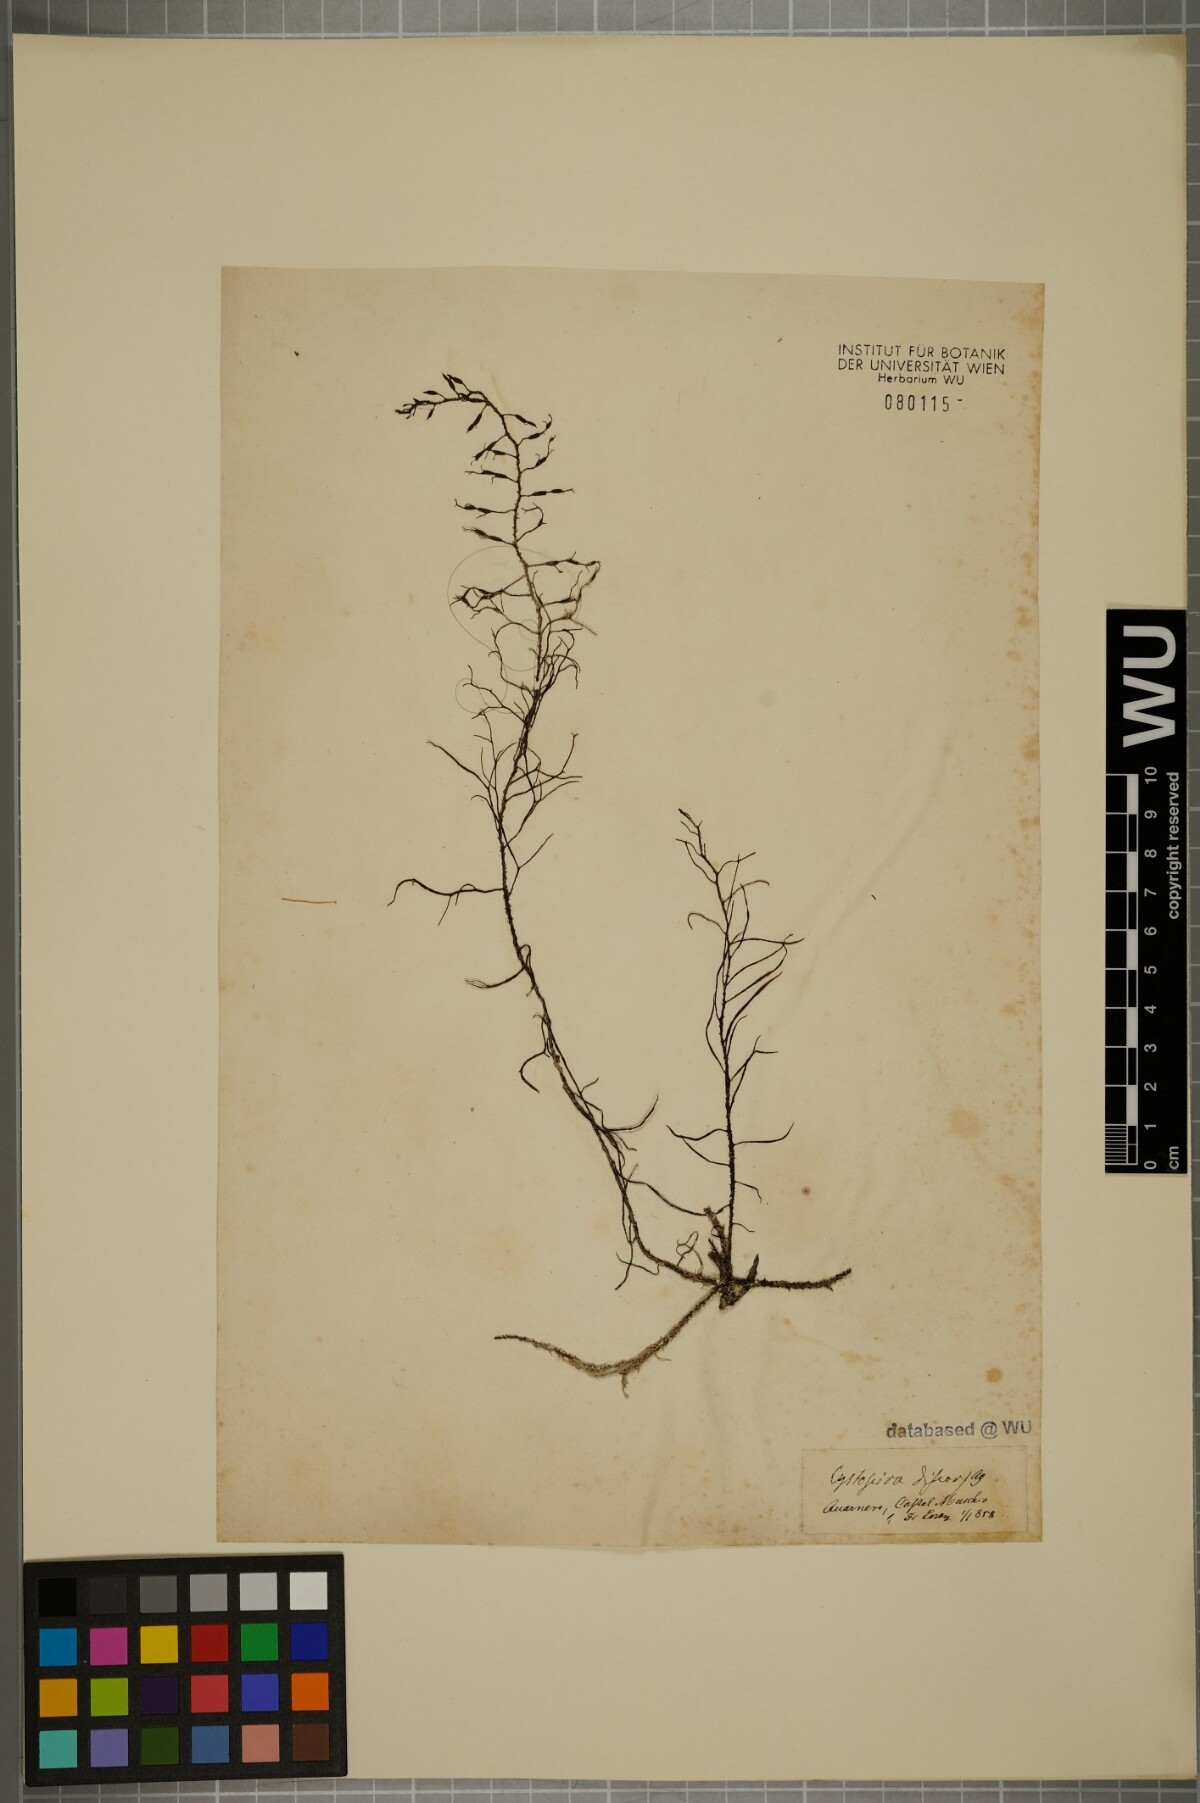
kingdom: Chromista
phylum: Ochrophyta
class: Phaeophyceae
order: Fucales
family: Sargassaceae
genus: Cystoseira
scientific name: Cystoseira foeniculacea
